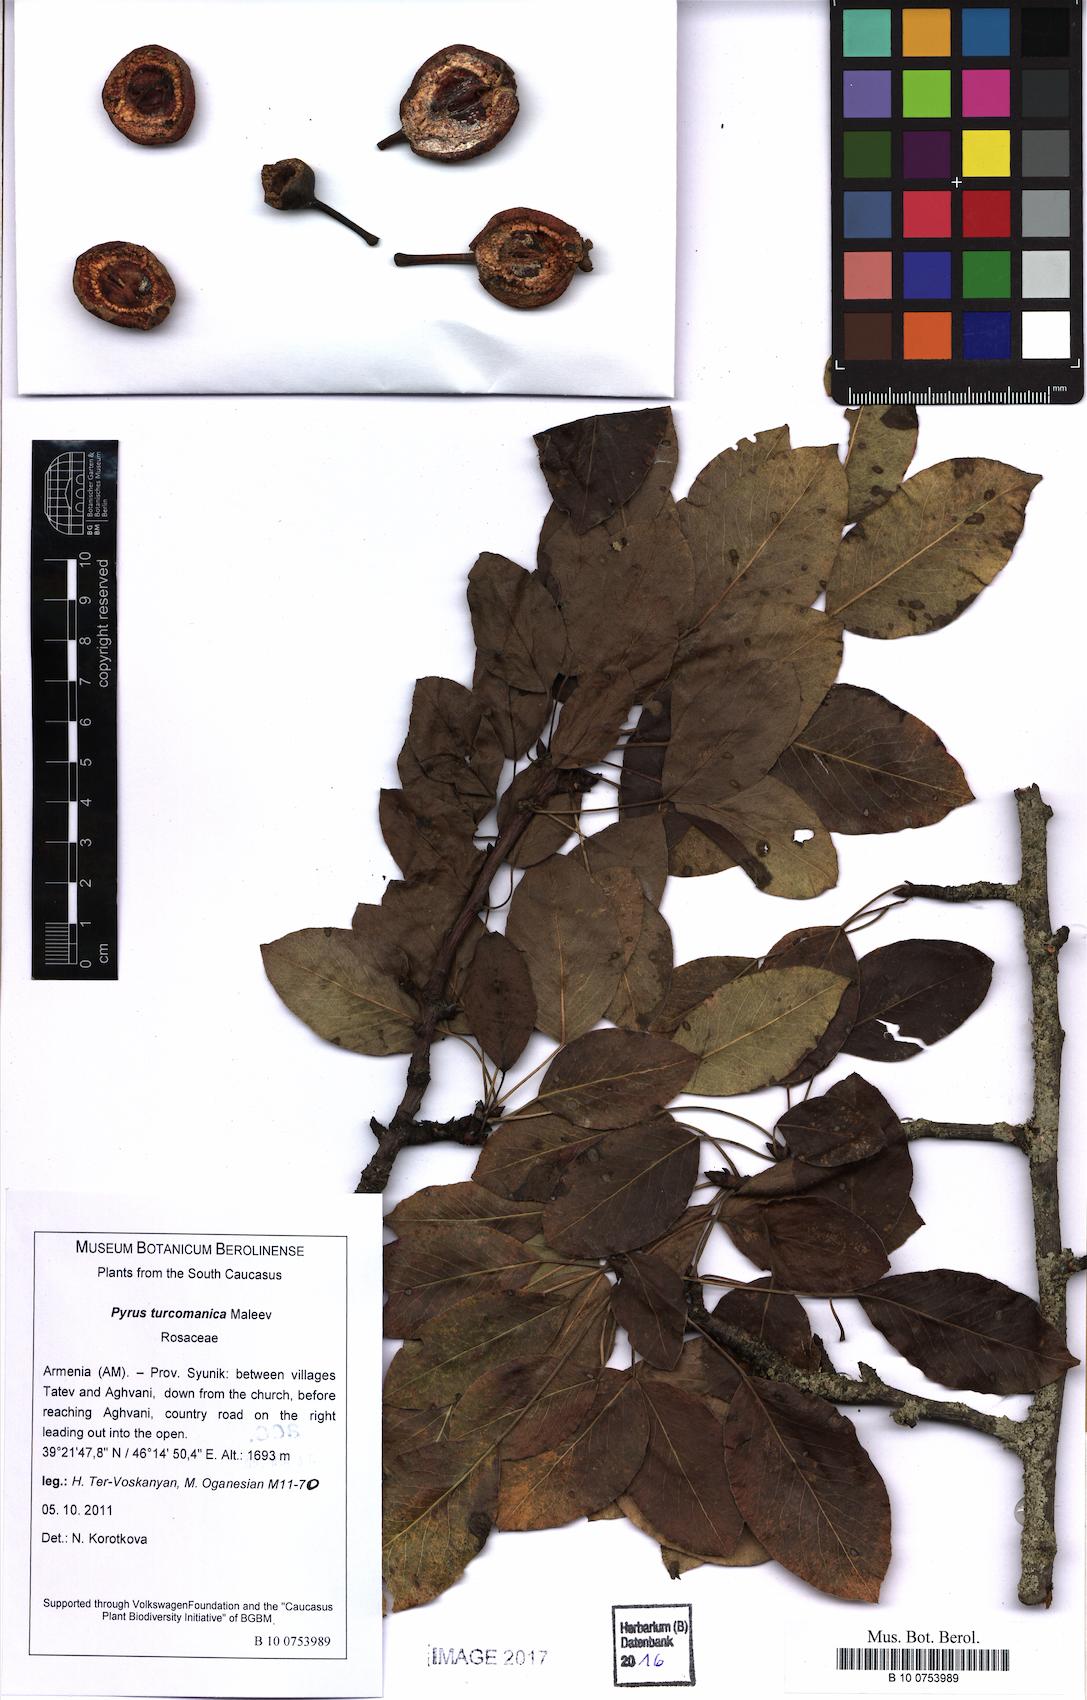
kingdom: Plantae
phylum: Tracheophyta
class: Magnoliopsida
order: Rosales
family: Rosaceae
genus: Pyrus
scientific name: Pyrus turcomanica
